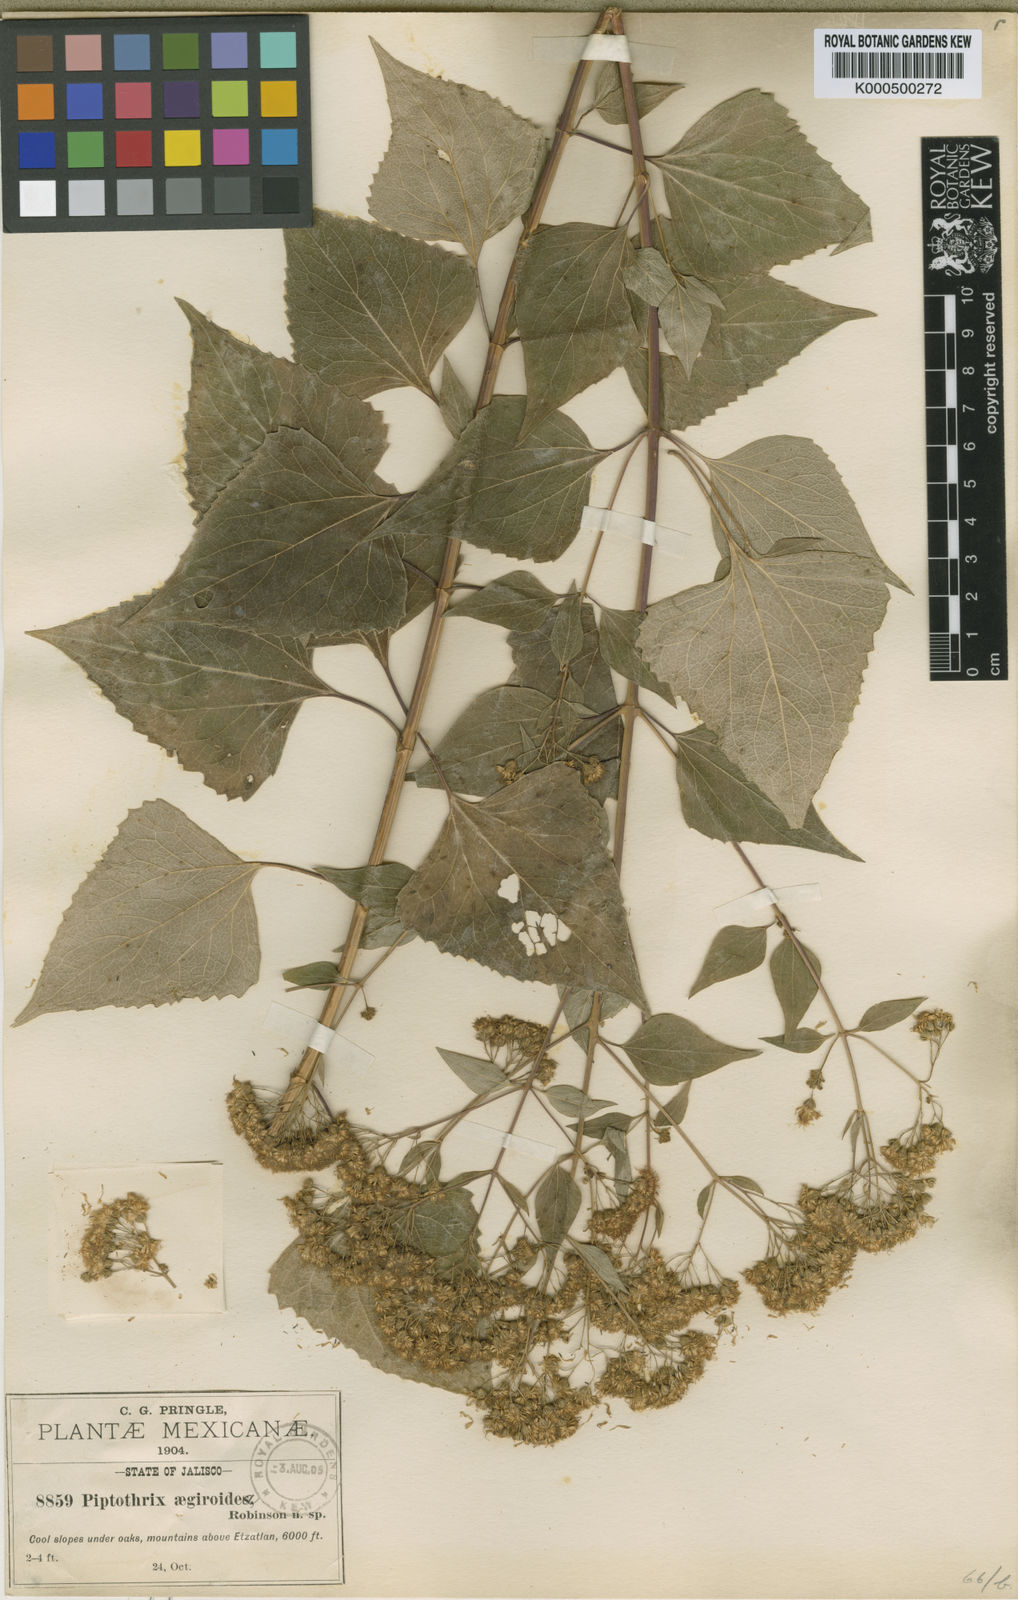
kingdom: Plantae
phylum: Tracheophyta
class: Magnoliopsida
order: Asterales
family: Asteraceae
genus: Jaliscoa
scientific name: Jaliscoa goldmanii
